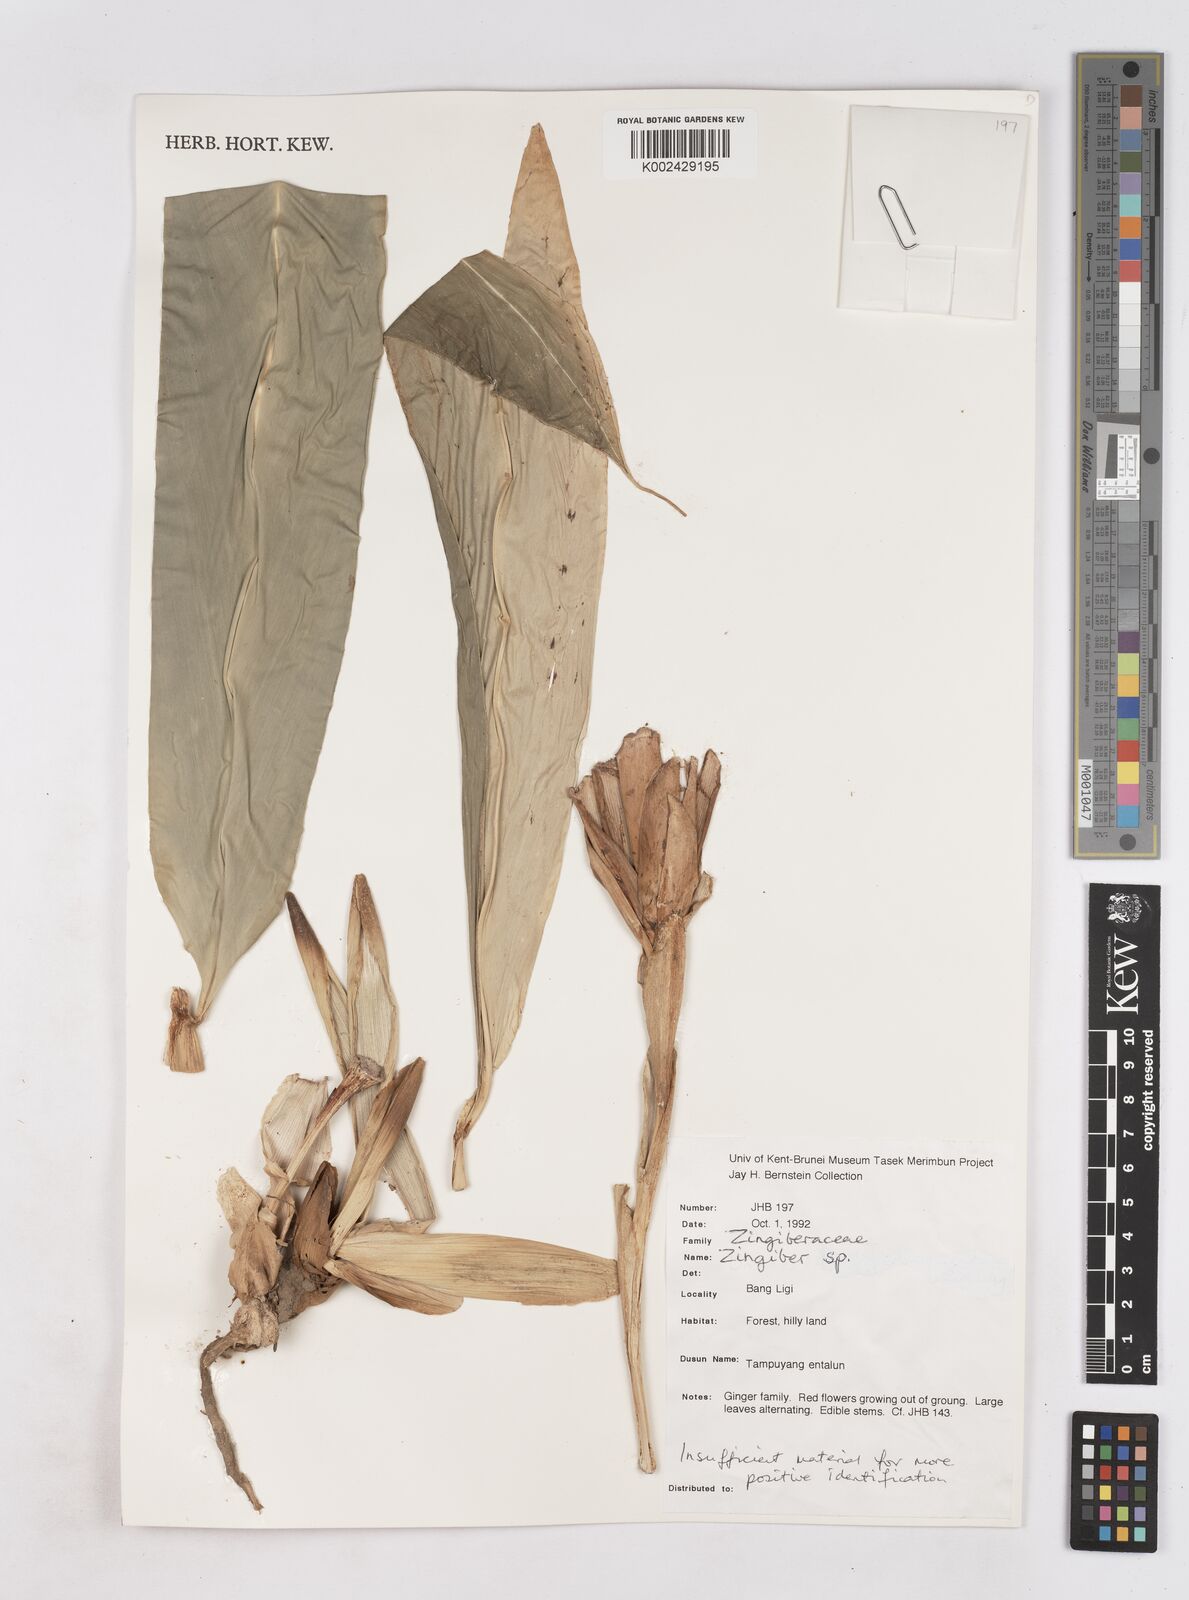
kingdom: Plantae
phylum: Tracheophyta
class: Liliopsida
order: Zingiberales
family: Zingiberaceae
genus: Zingiber
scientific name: Zingiber
